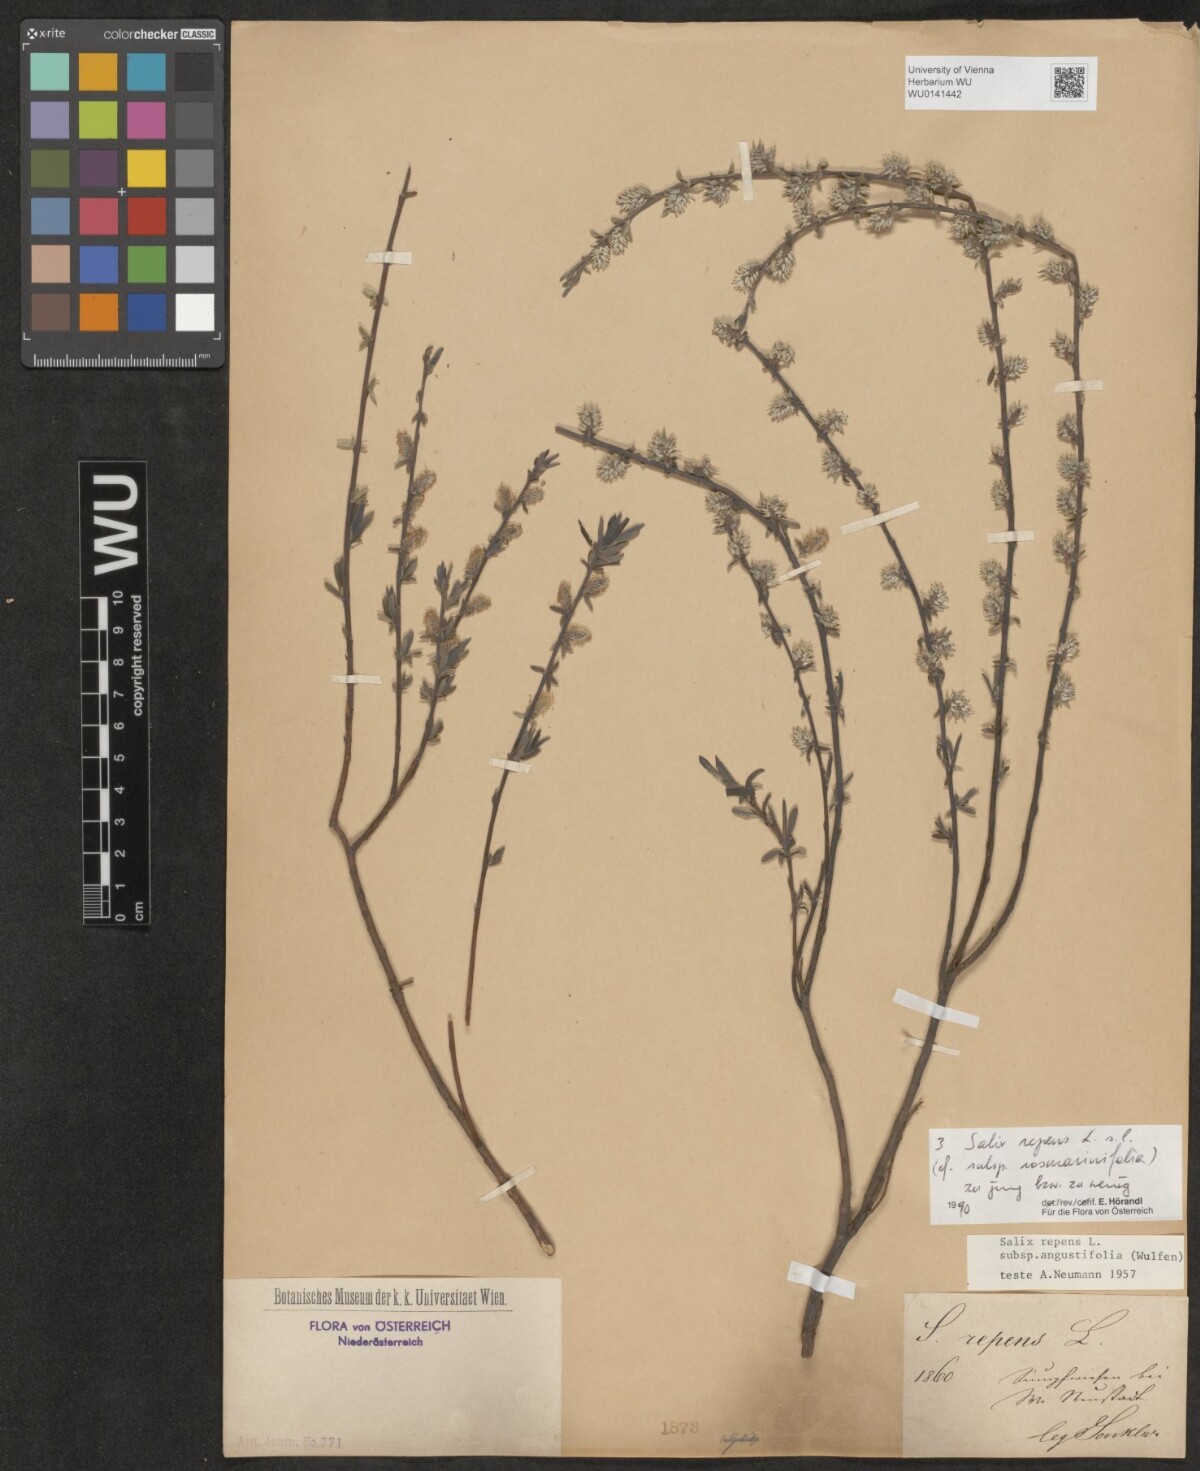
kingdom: Plantae
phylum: Tracheophyta
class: Magnoliopsida
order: Malpighiales
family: Salicaceae
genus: Salix
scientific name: Salix repens
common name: Creeping willow
